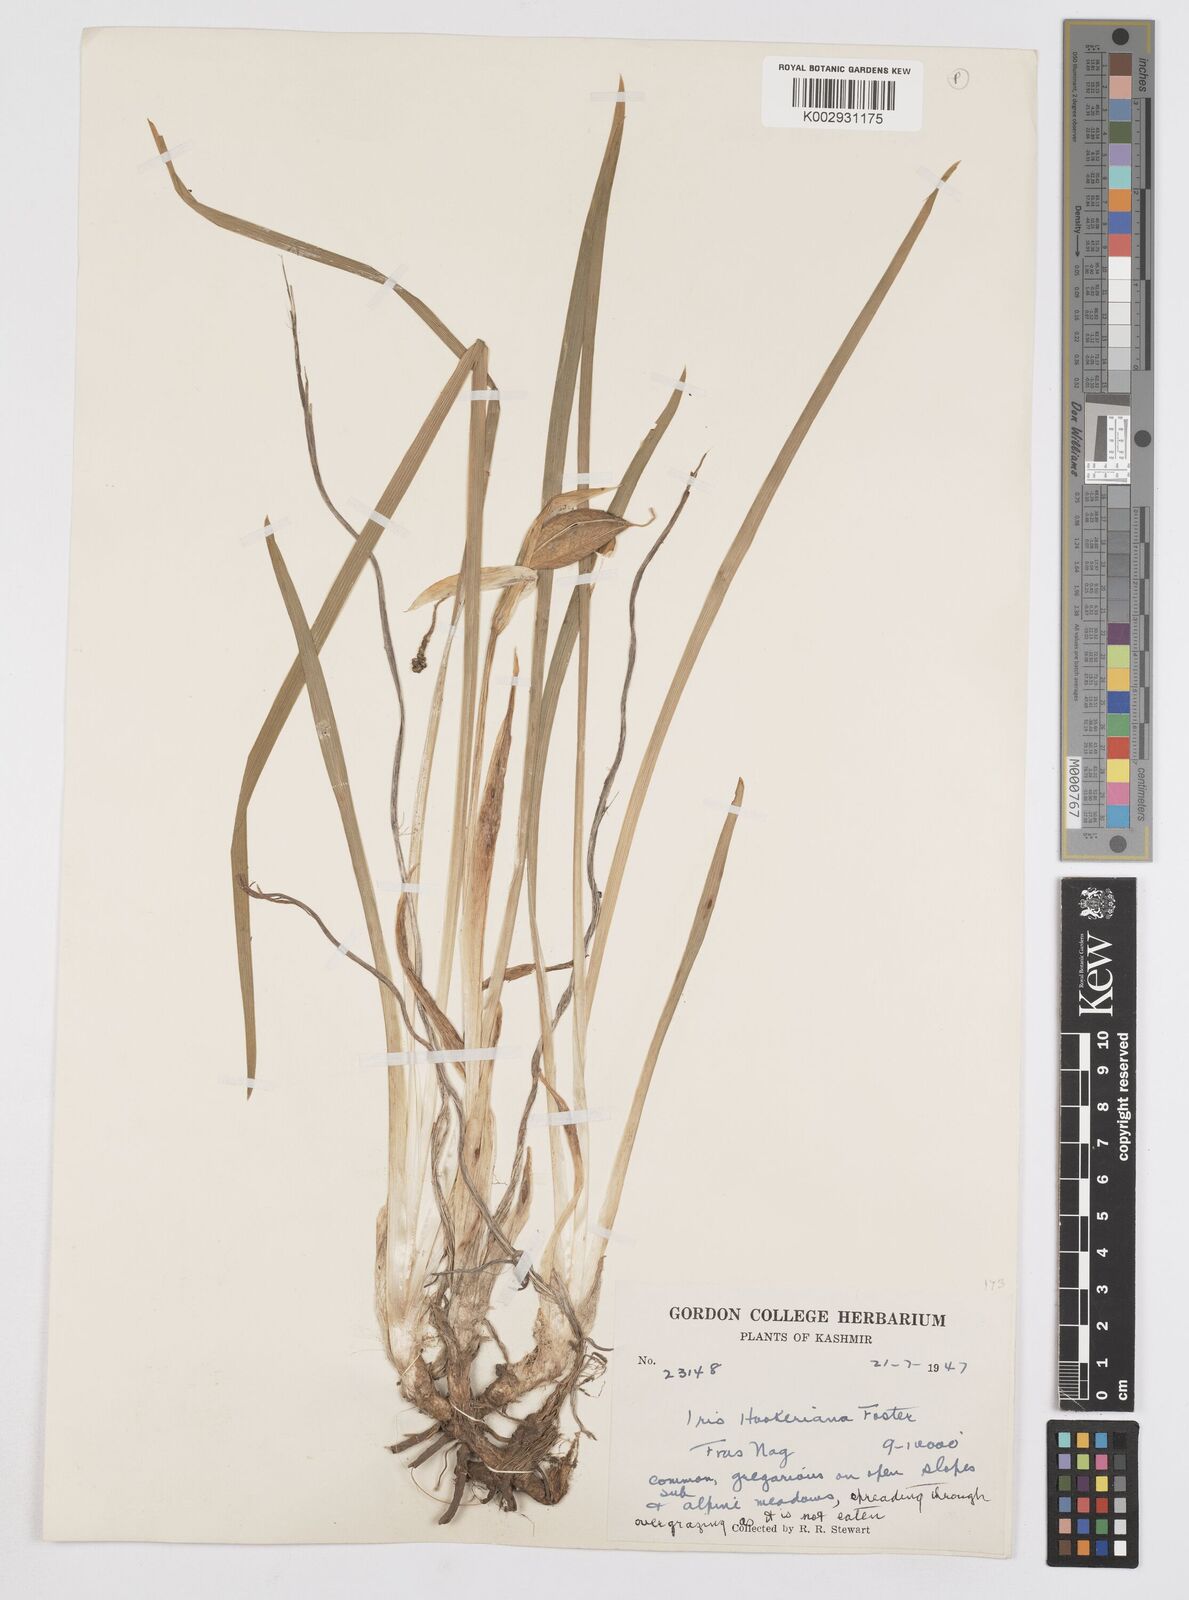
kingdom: Plantae
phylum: Tracheophyta
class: Liliopsida
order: Asparagales
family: Iridaceae
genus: Iris
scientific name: Iris kemaonensis
